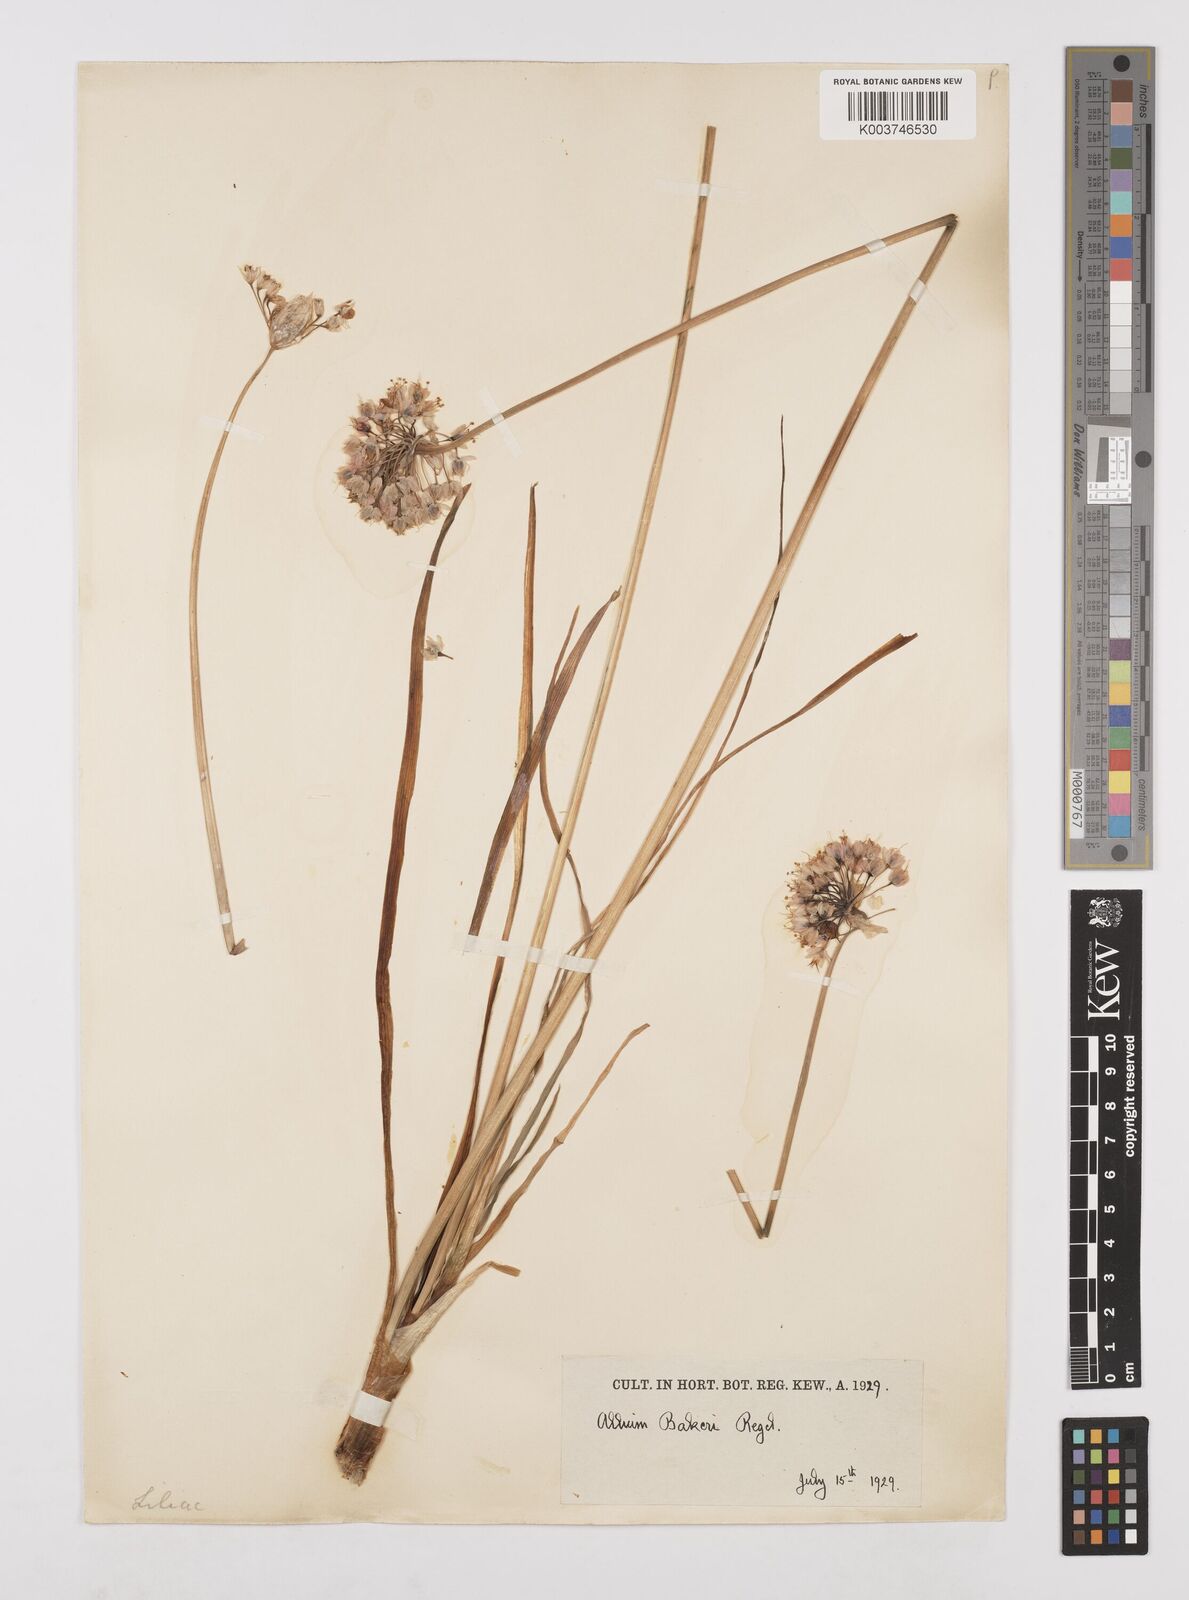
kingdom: Plantae
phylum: Tracheophyta
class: Liliopsida
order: Asparagales
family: Amaryllidaceae
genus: Allium
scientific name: Allium chinense
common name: Japanese scallion
